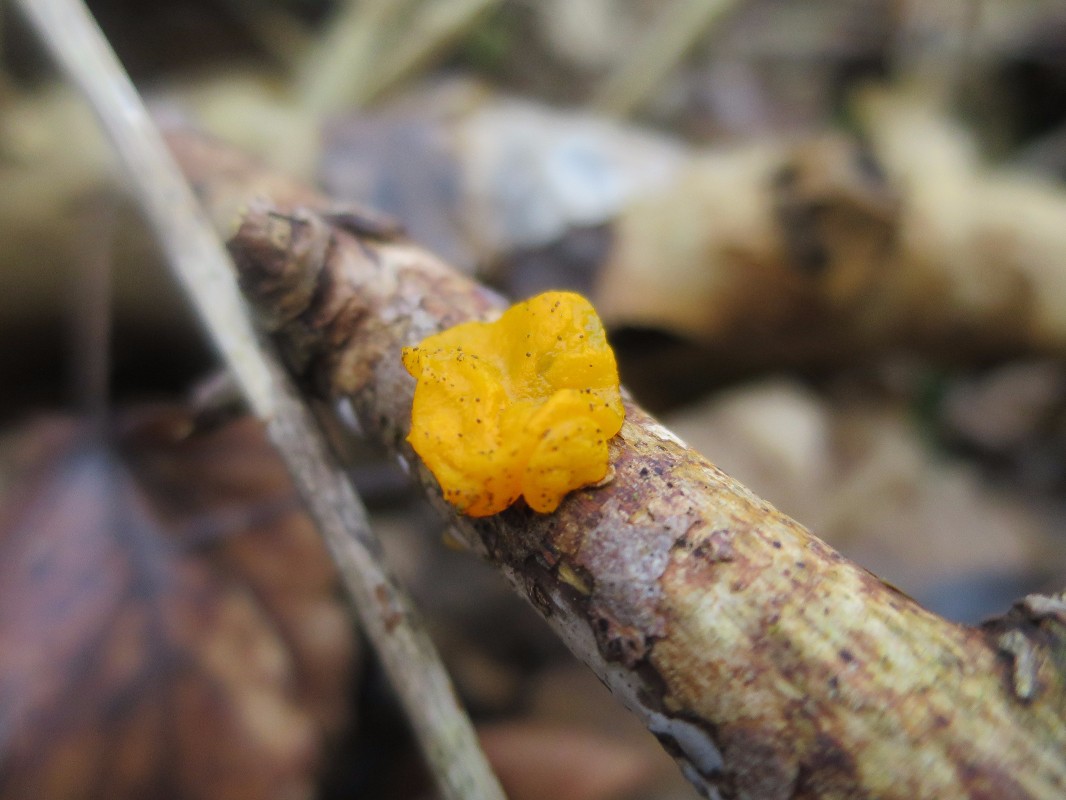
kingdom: Fungi
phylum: Basidiomycota
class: Tremellomycetes
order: Tremellales
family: Tremellaceae
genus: Tremella
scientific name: Tremella mesenterica
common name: gul bævresvamp
